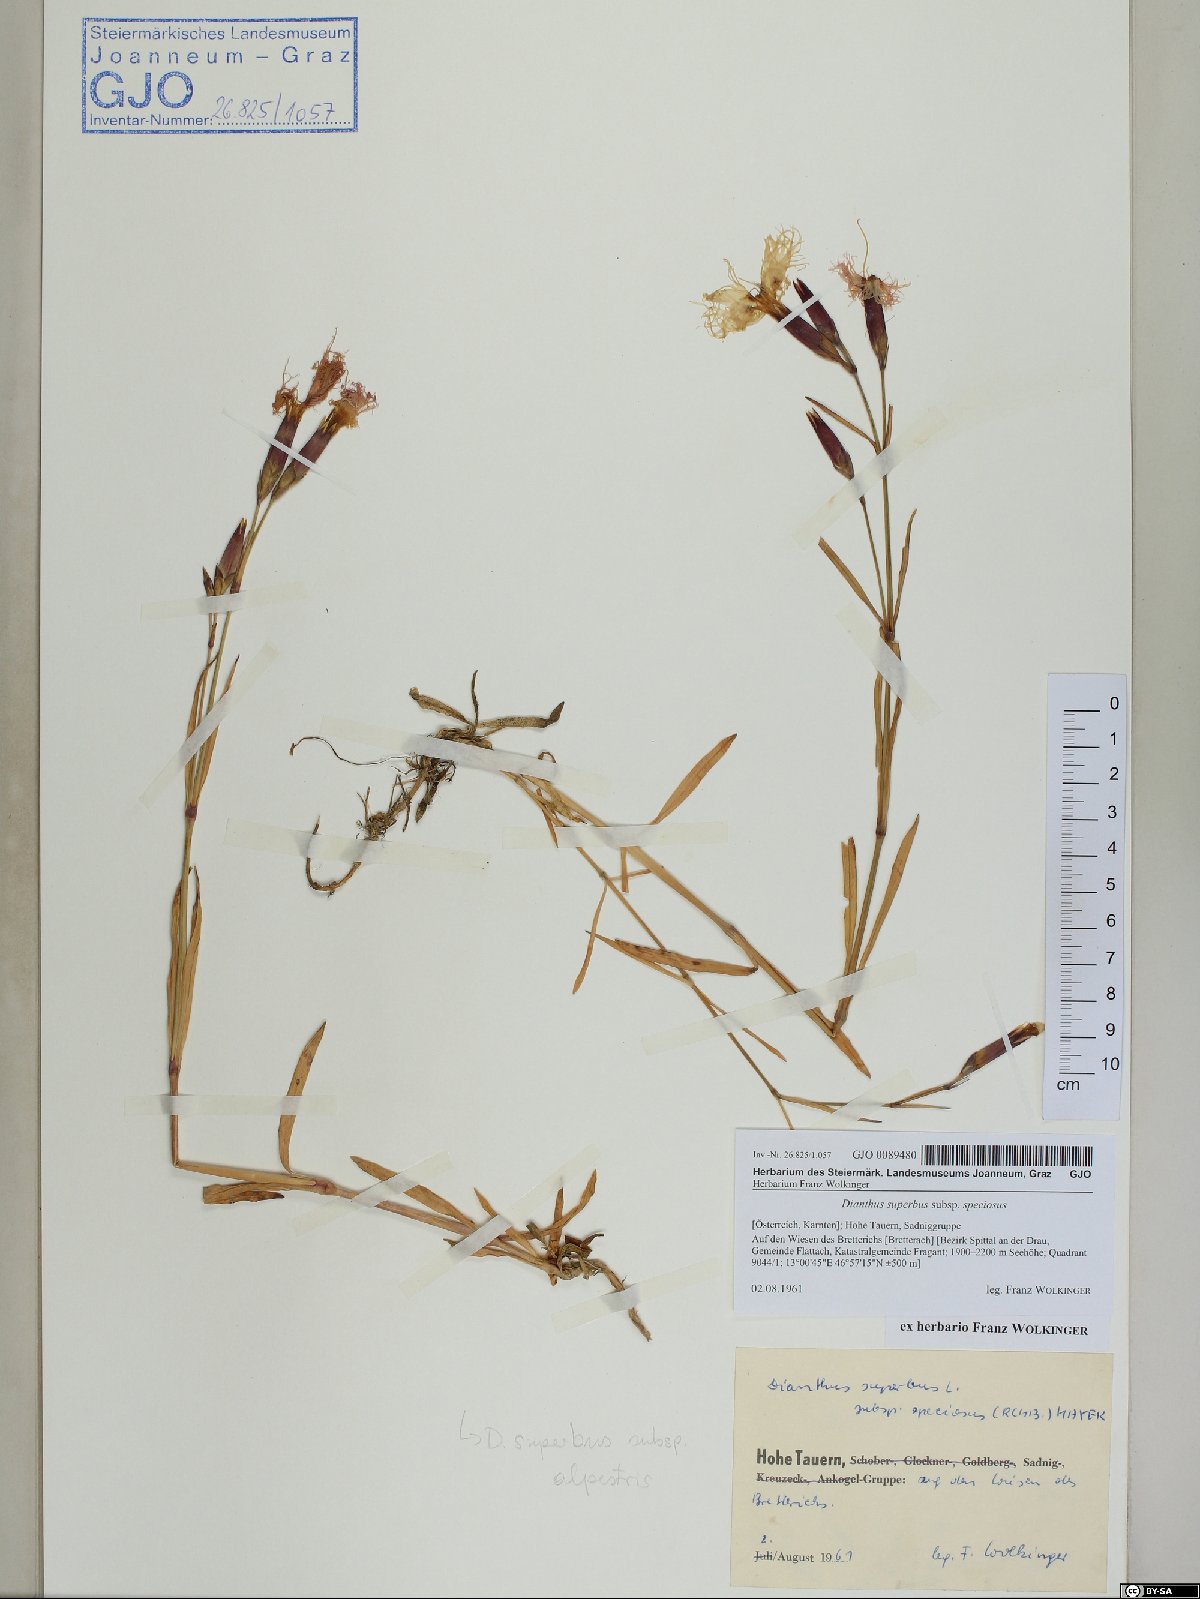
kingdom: Plantae
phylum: Tracheophyta
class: Magnoliopsida
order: Caryophyllales
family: Caryophyllaceae
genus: Dianthus
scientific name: Dianthus superbus
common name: Fringed pink
